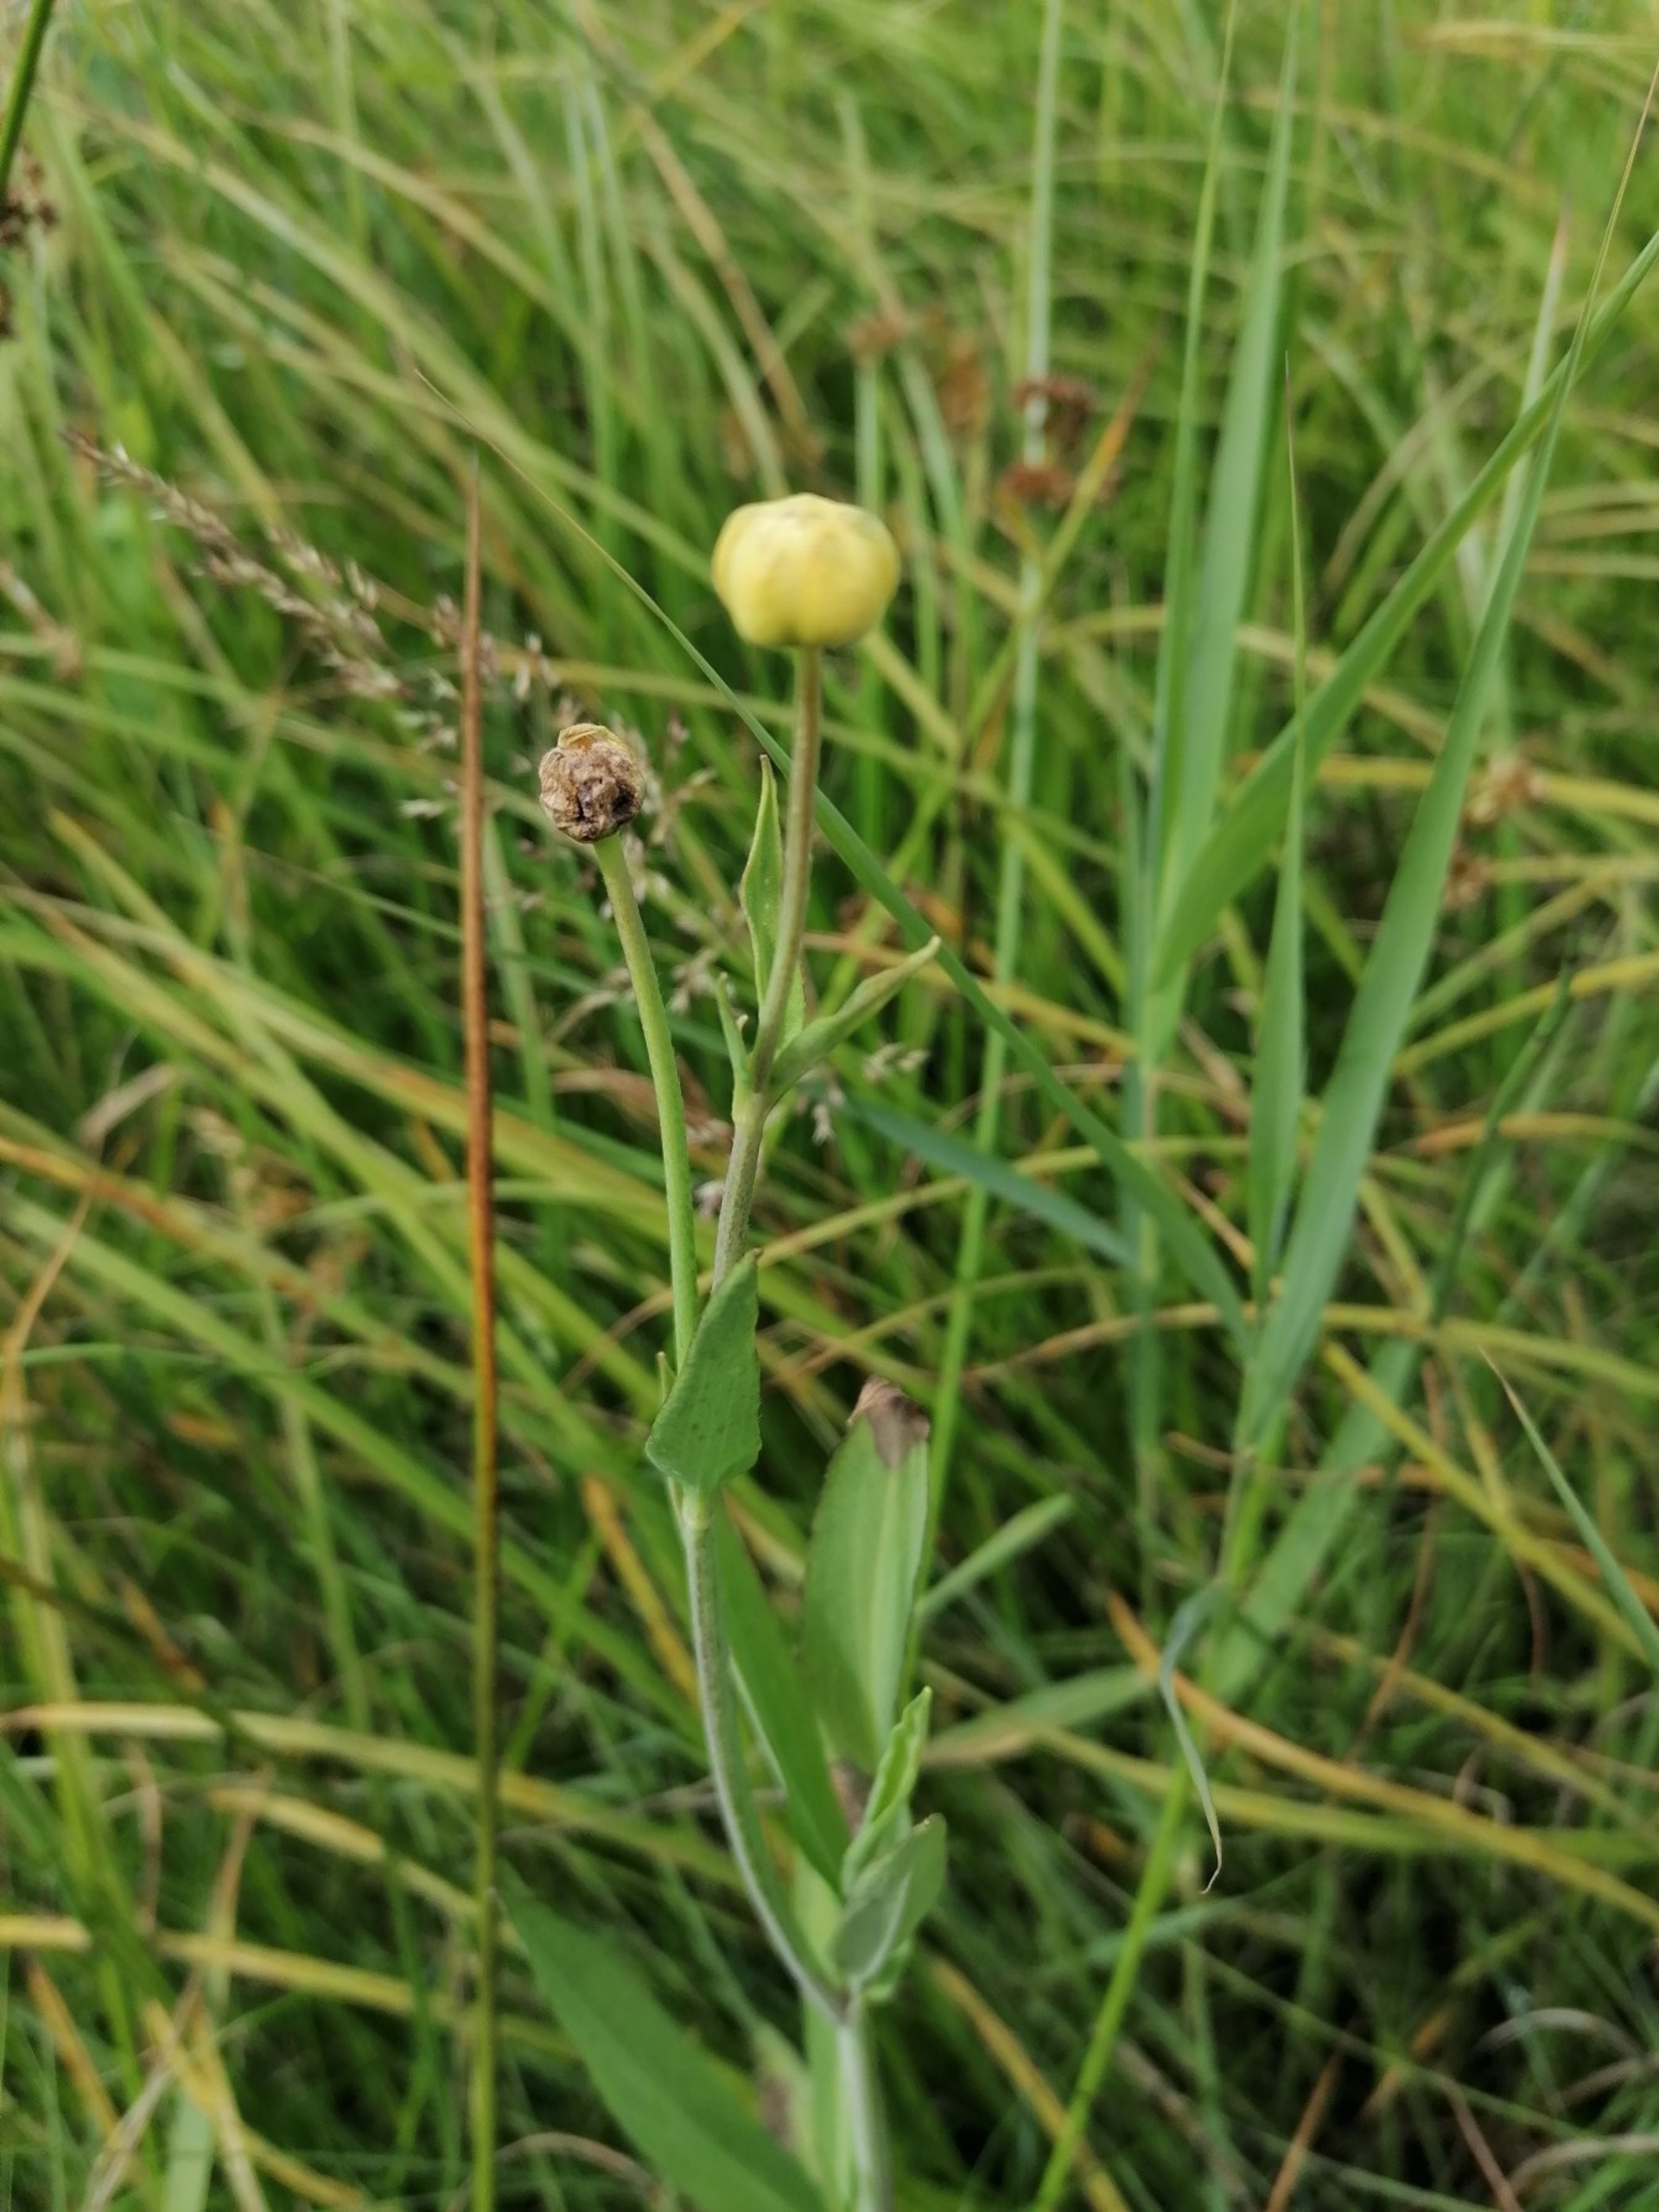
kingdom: Plantae
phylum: Tracheophyta
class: Magnoliopsida
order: Ranunculales
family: Ranunculaceae
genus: Ranunculus
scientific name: Ranunculus lingua
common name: Langbladet ranunkel
